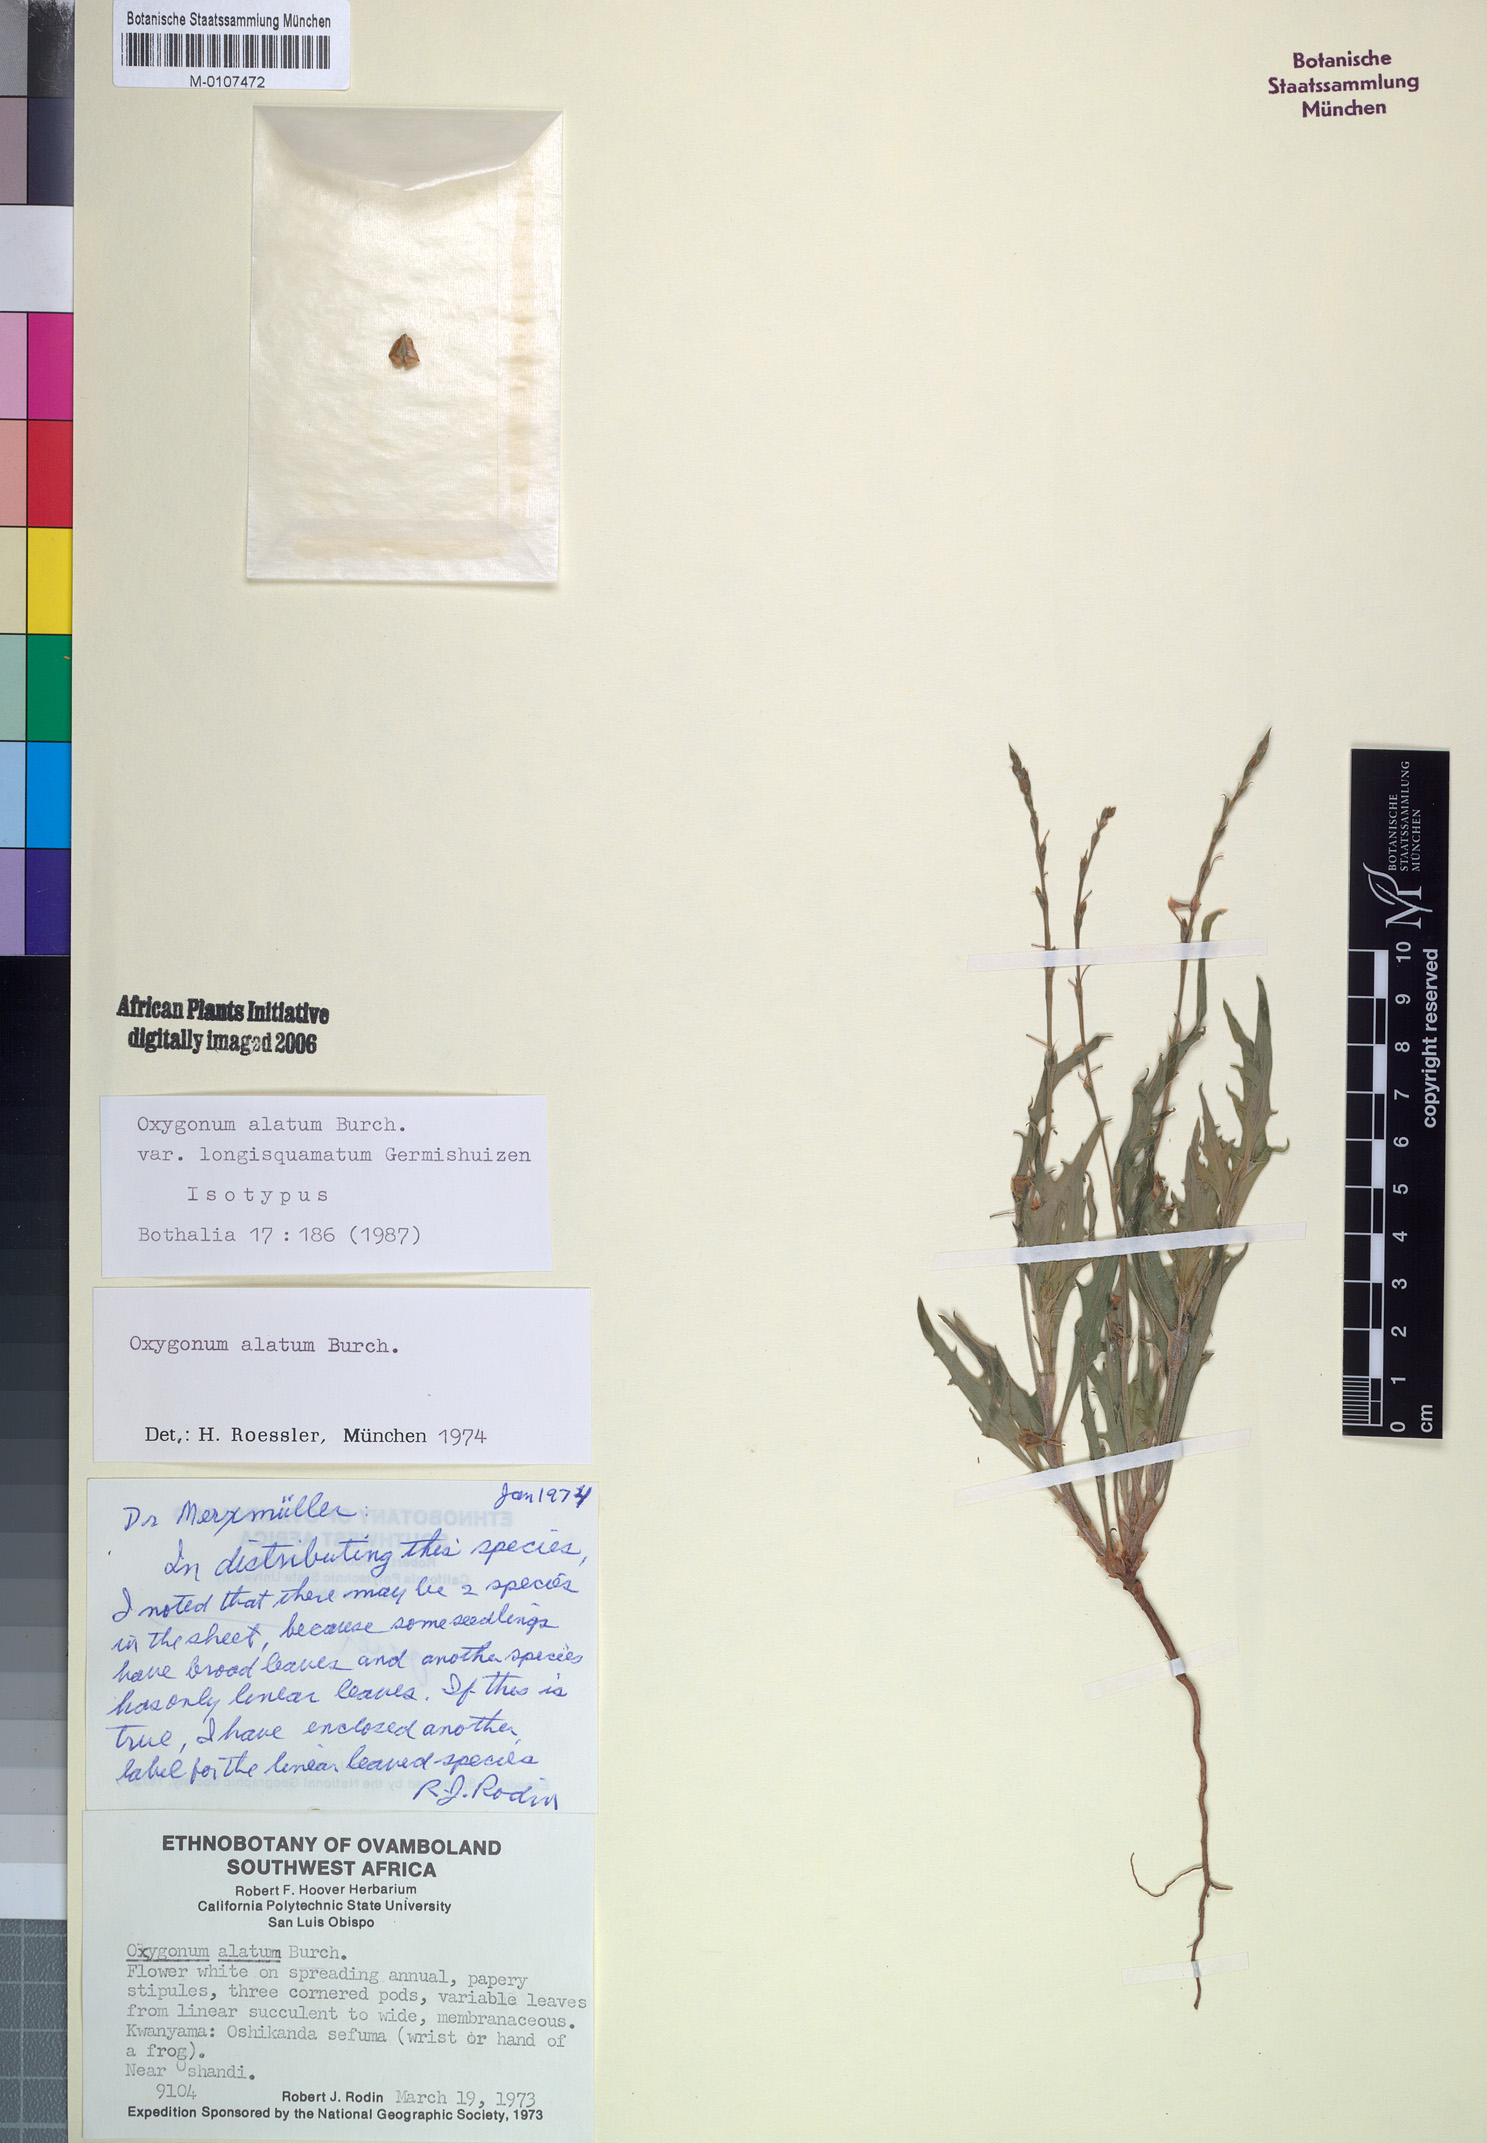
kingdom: Plantae
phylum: Tracheophyta
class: Magnoliopsida
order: Caryophyllales
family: Polygonaceae
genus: Oxygonum
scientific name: Oxygonum alatum
